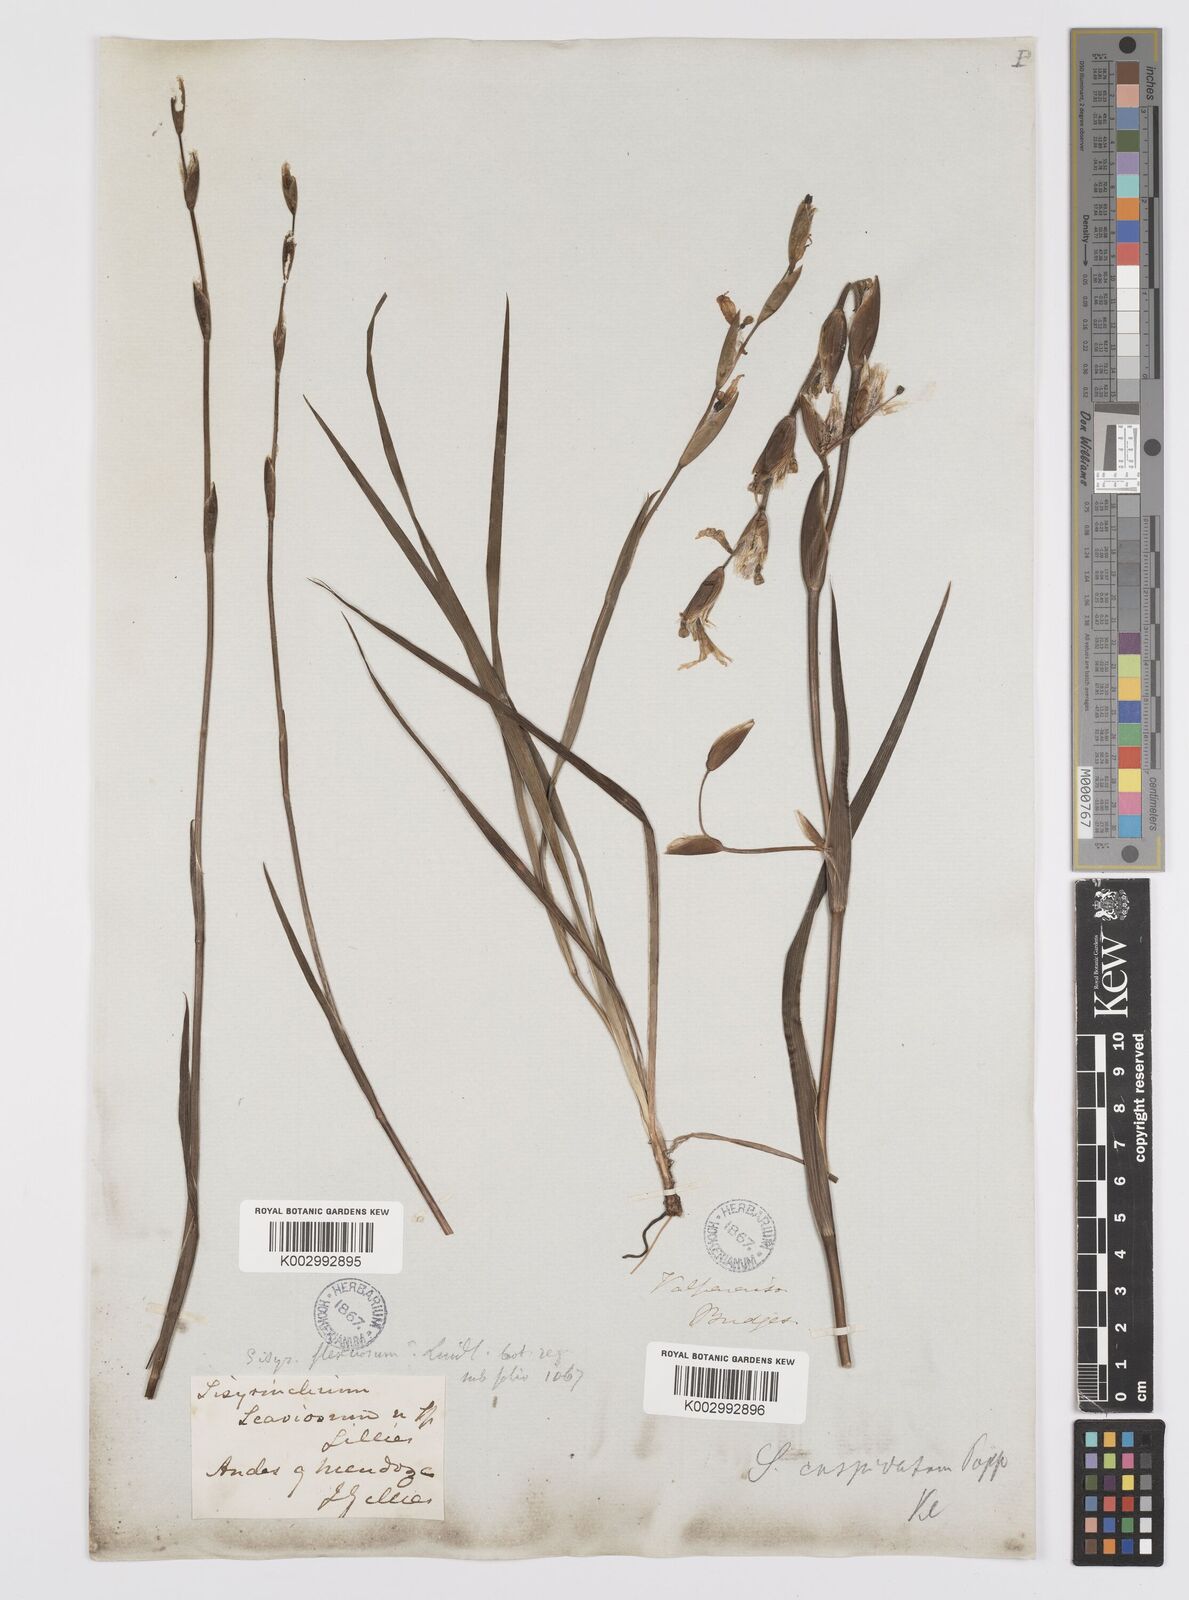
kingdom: Plantae
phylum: Tracheophyta
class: Liliopsida
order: Asparagales
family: Iridaceae
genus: Sisyrinchium
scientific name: Sisyrinchium cuspidatum
